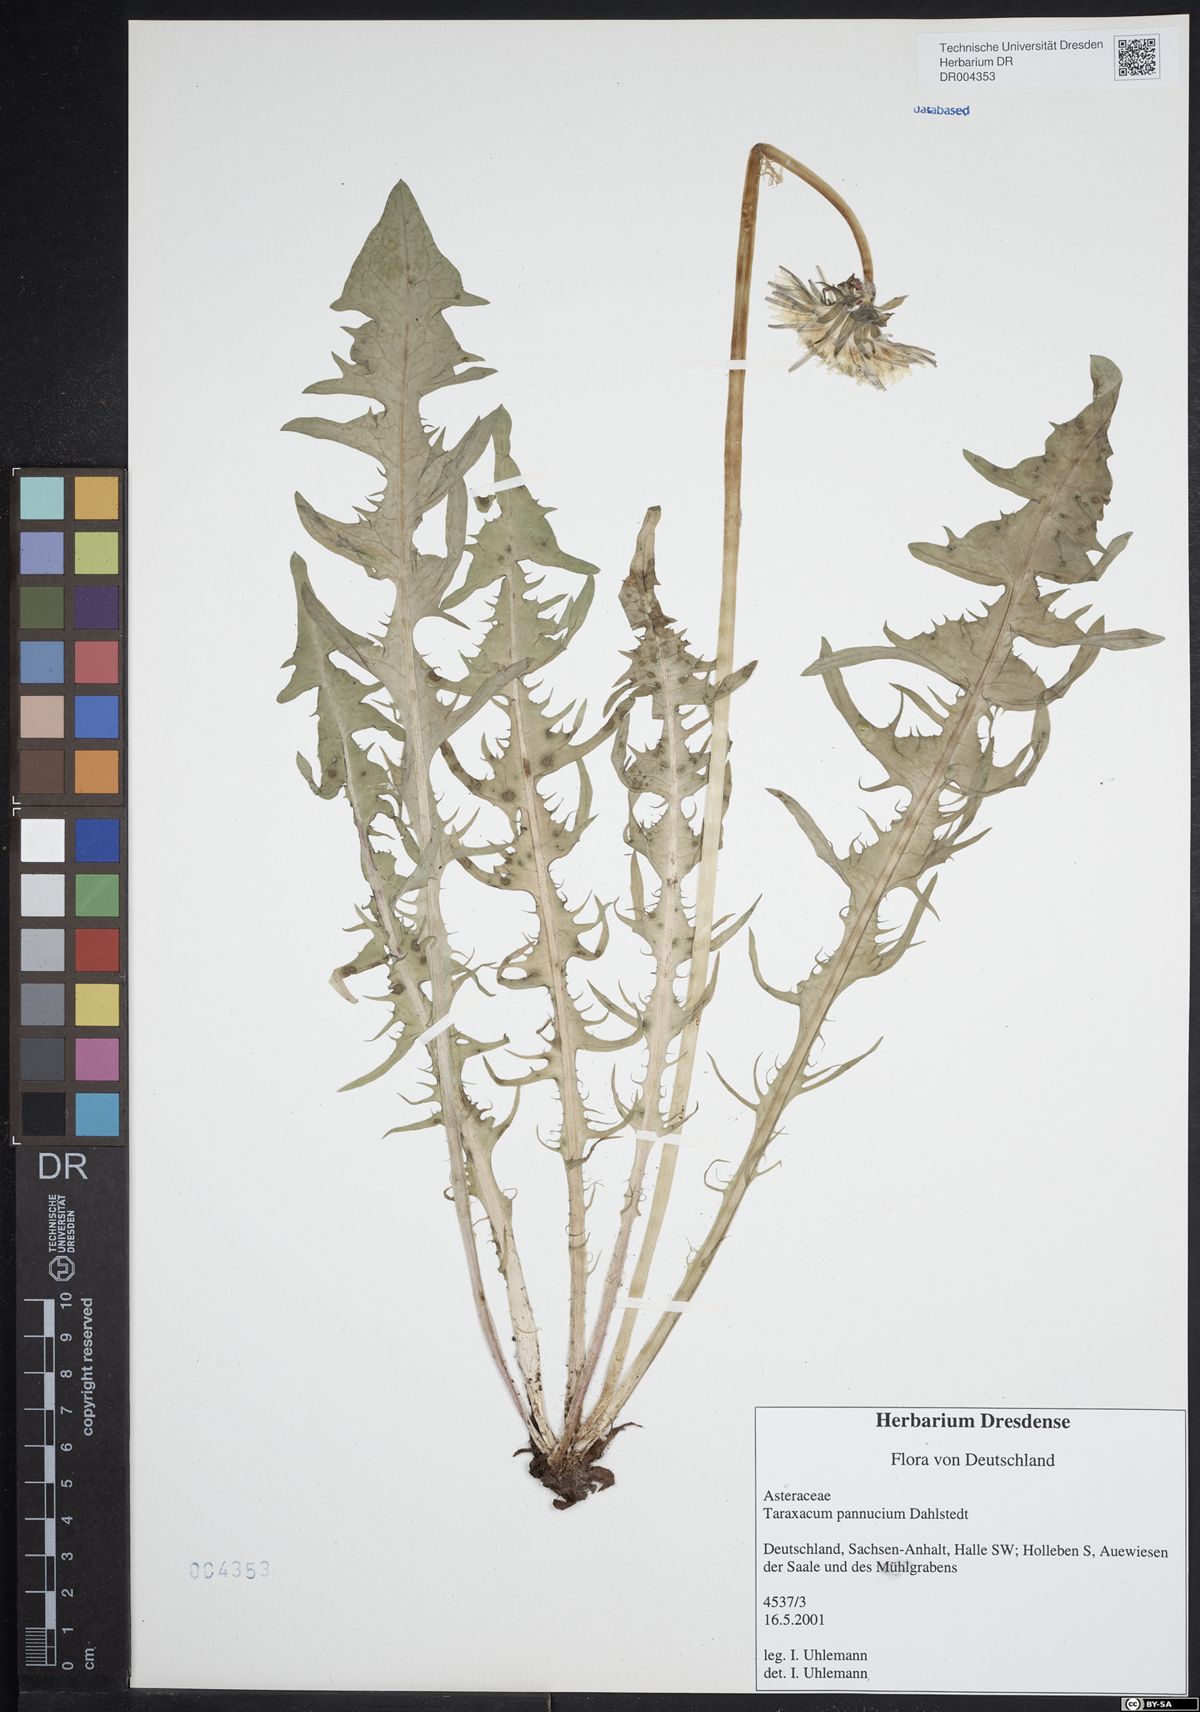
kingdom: Plantae
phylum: Tracheophyta
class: Magnoliopsida
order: Asterales
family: Asteraceae
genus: Taraxacum
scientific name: Taraxacum pannucium
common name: Green-stalked dandelion
